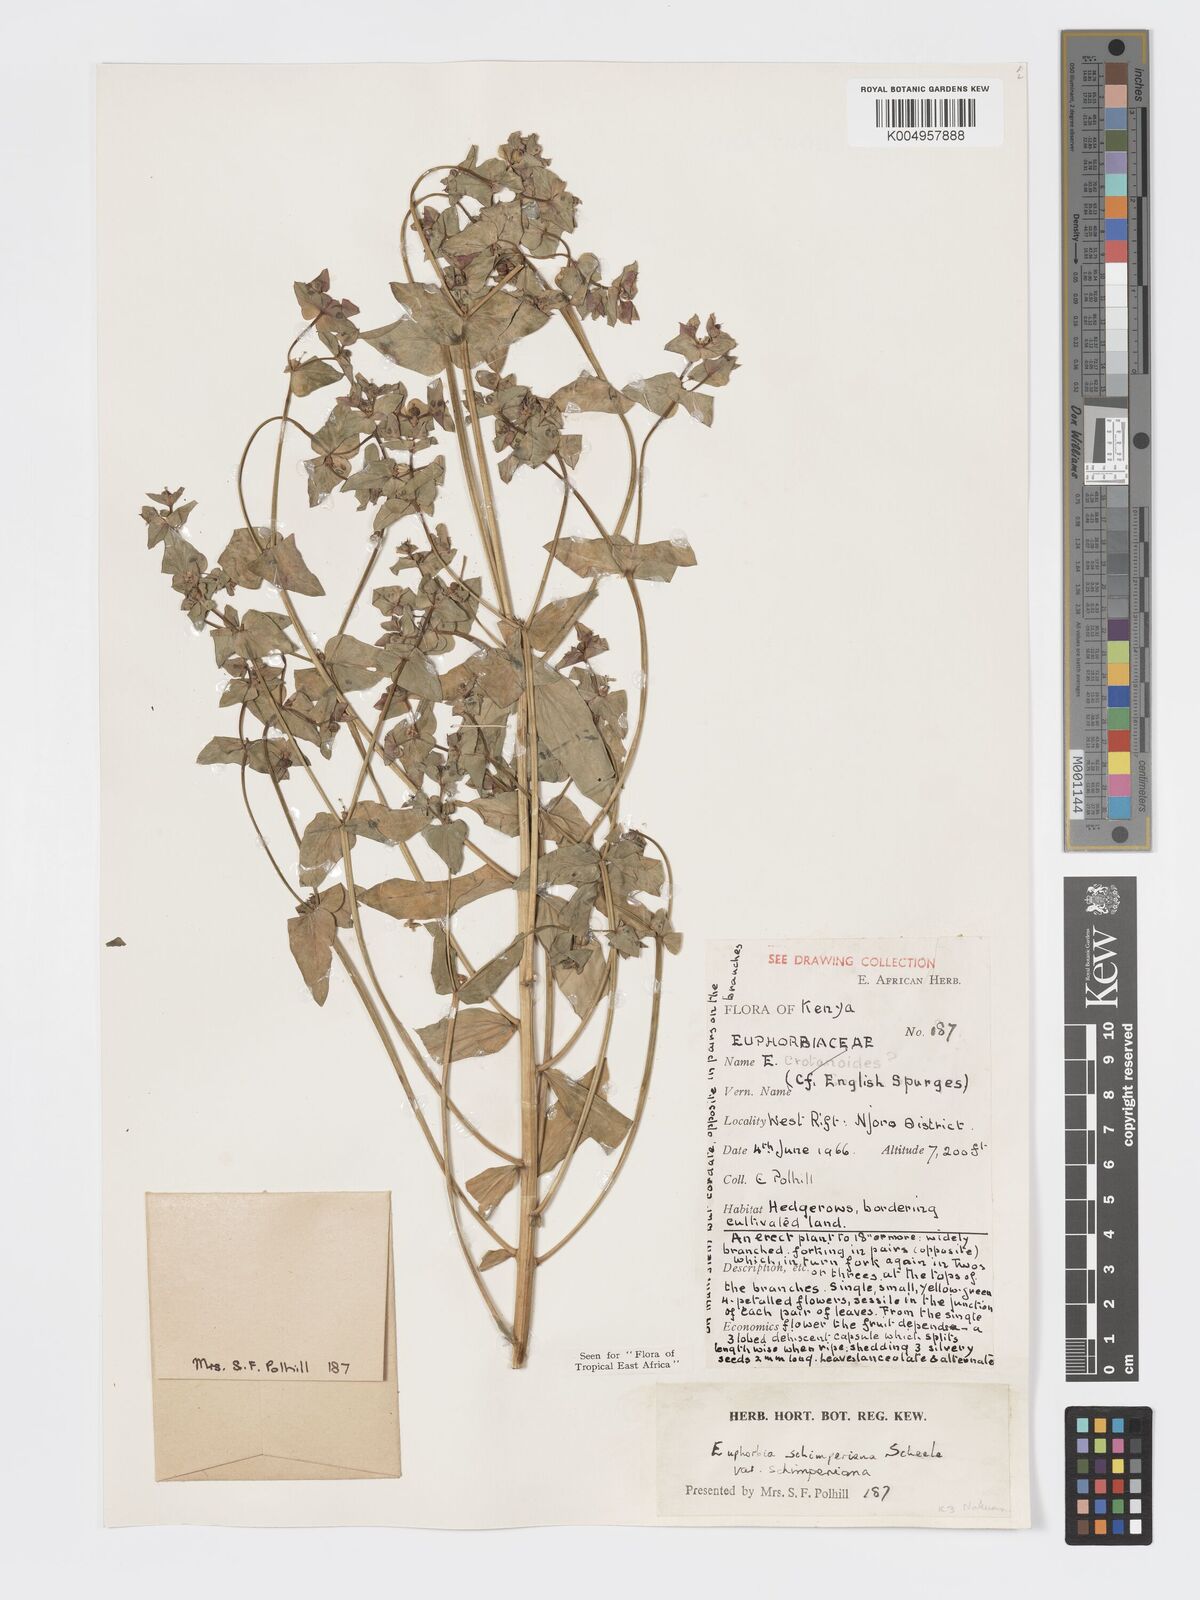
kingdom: Plantae
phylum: Tracheophyta
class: Magnoliopsida
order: Malpighiales
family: Euphorbiaceae
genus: Euphorbia
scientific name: Euphorbia schimperiana
